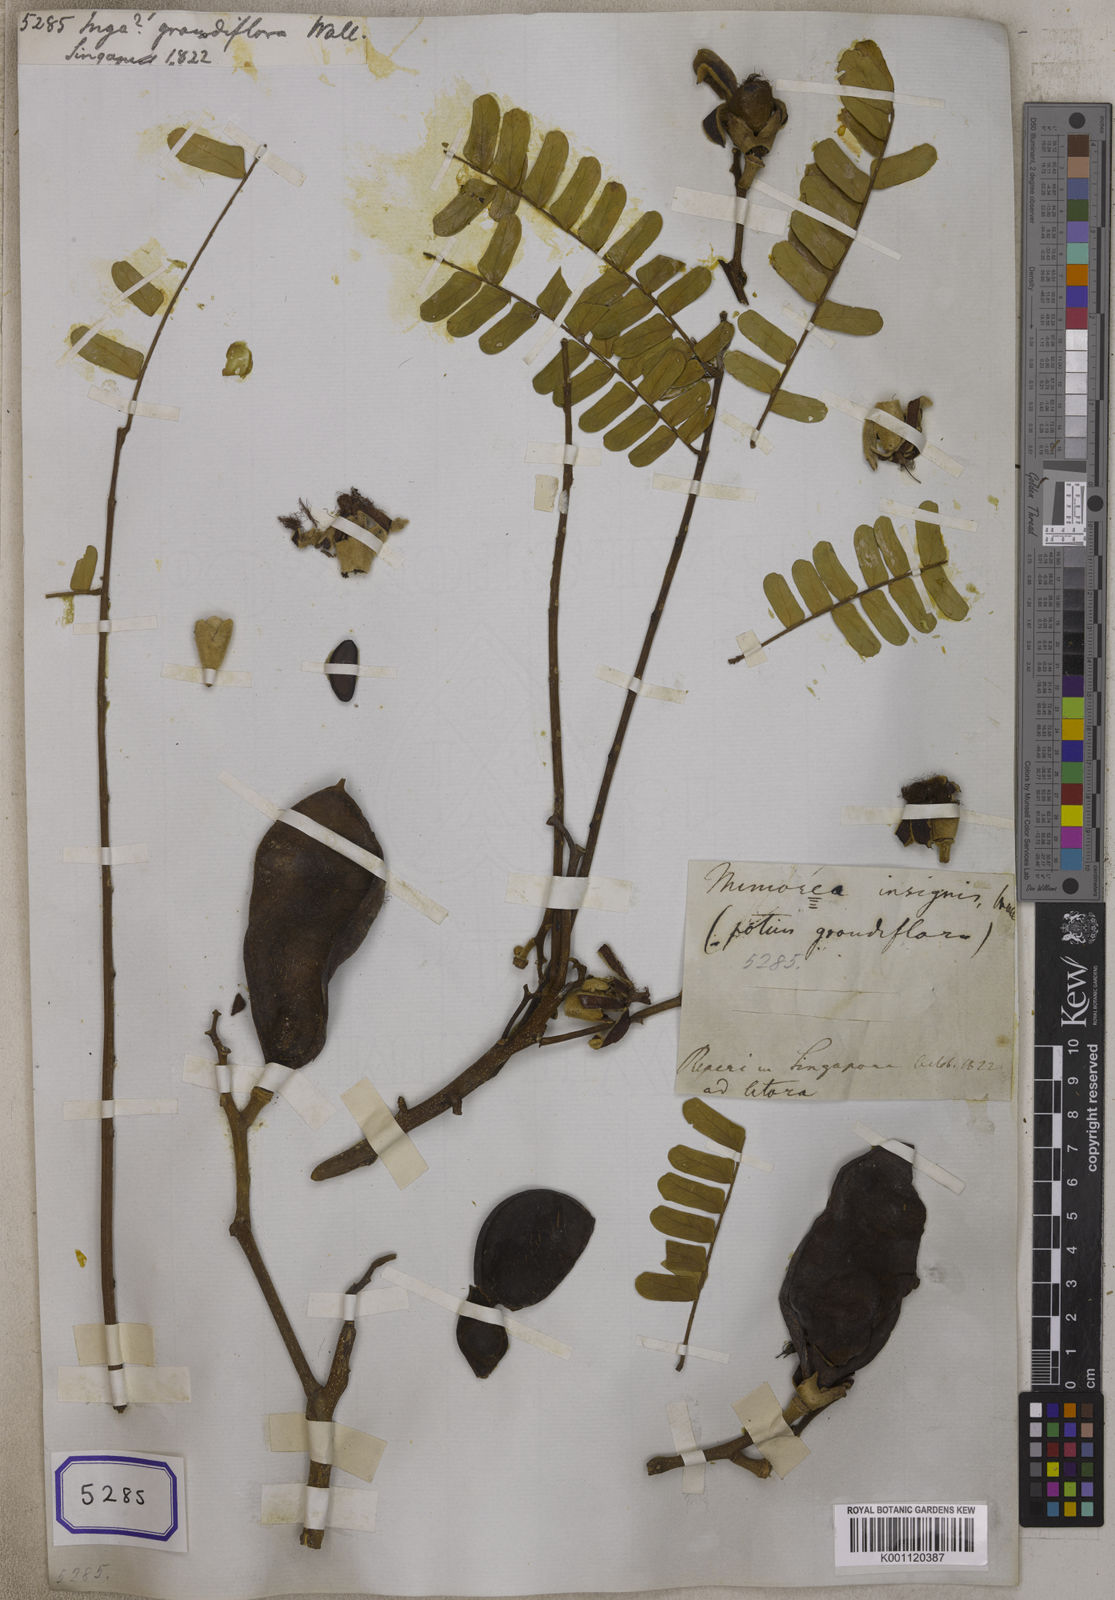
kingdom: Plantae
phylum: Tracheophyta
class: Magnoliopsida
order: Fabales
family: Fabaceae
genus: Serianthes
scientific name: Serianthes grandiflora
